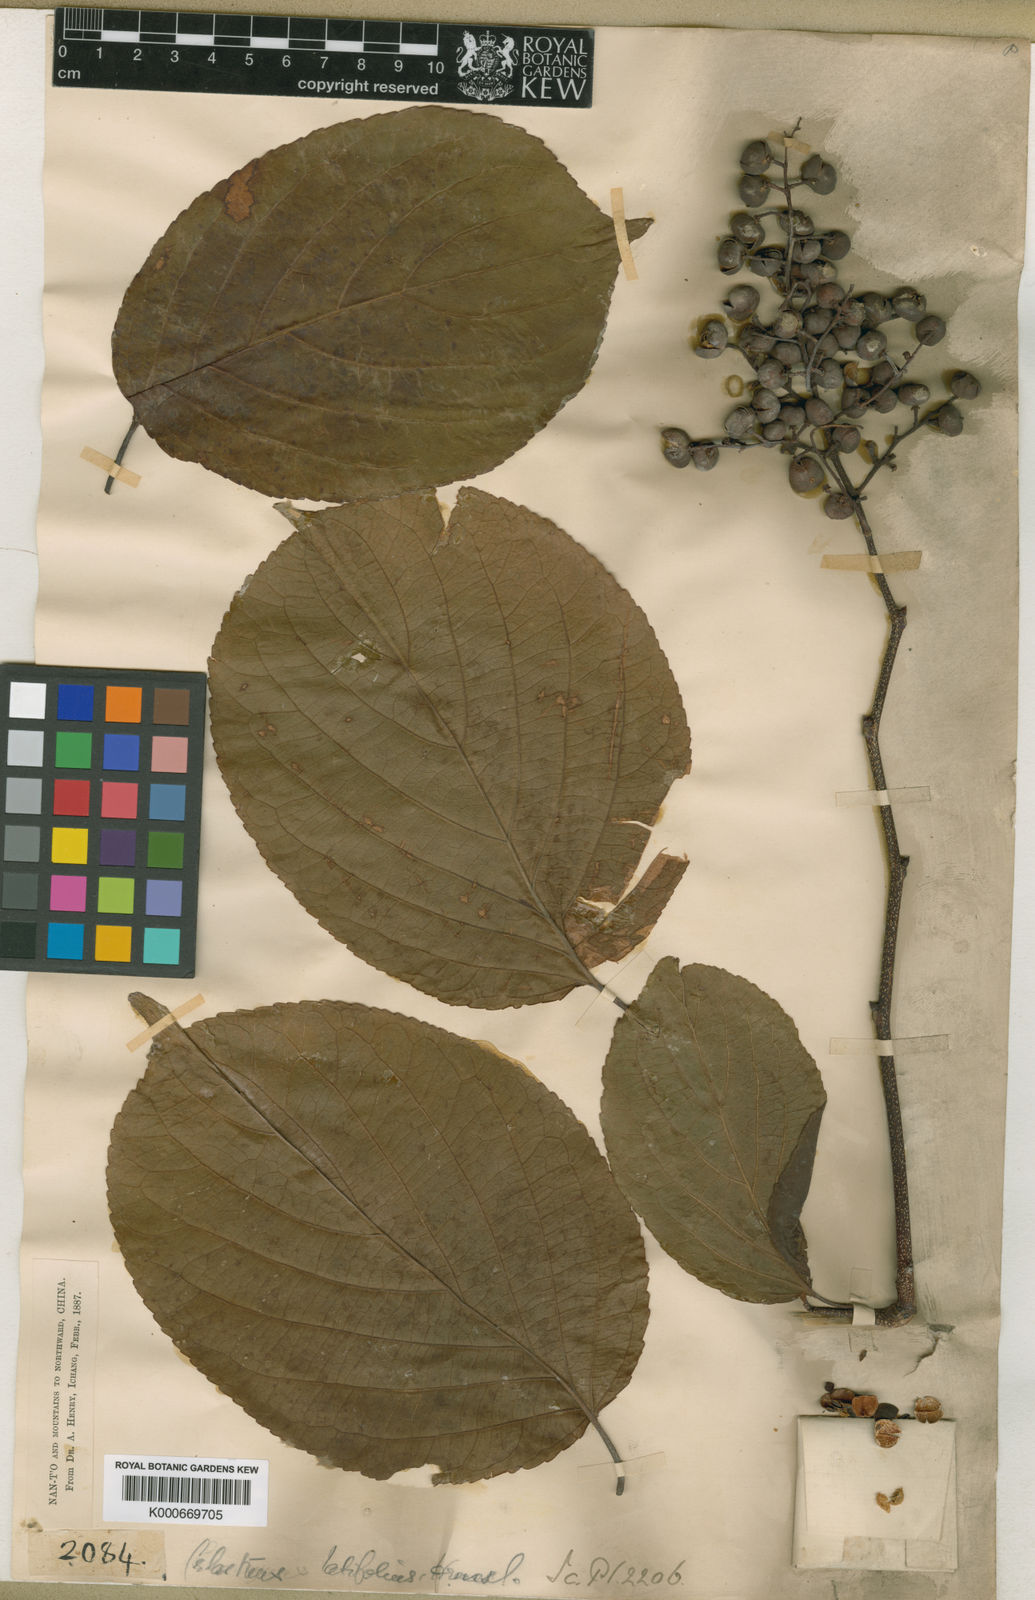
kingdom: Plantae
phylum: Tracheophyta
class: Magnoliopsida
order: Celastrales
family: Celastraceae
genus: Celastrus
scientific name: Celastrus angulatus
